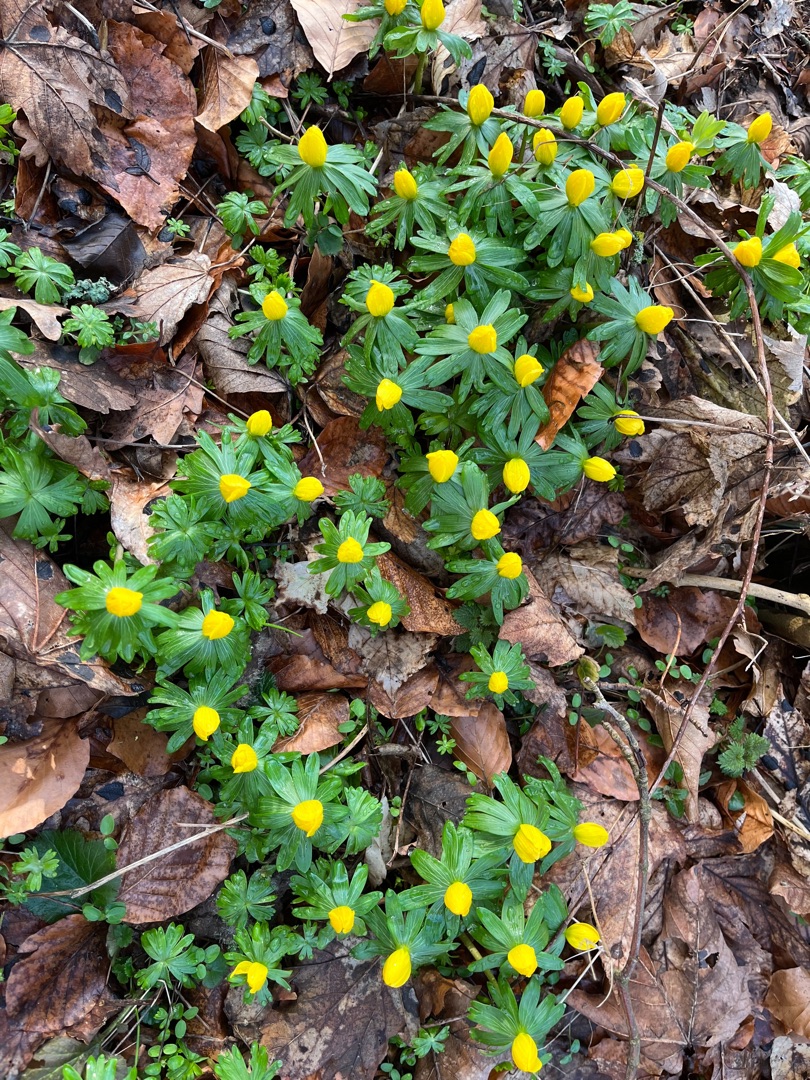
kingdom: Plantae
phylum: Tracheophyta
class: Magnoliopsida
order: Ranunculales
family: Ranunculaceae
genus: Eranthis
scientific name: Eranthis hyemalis
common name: Erantis
